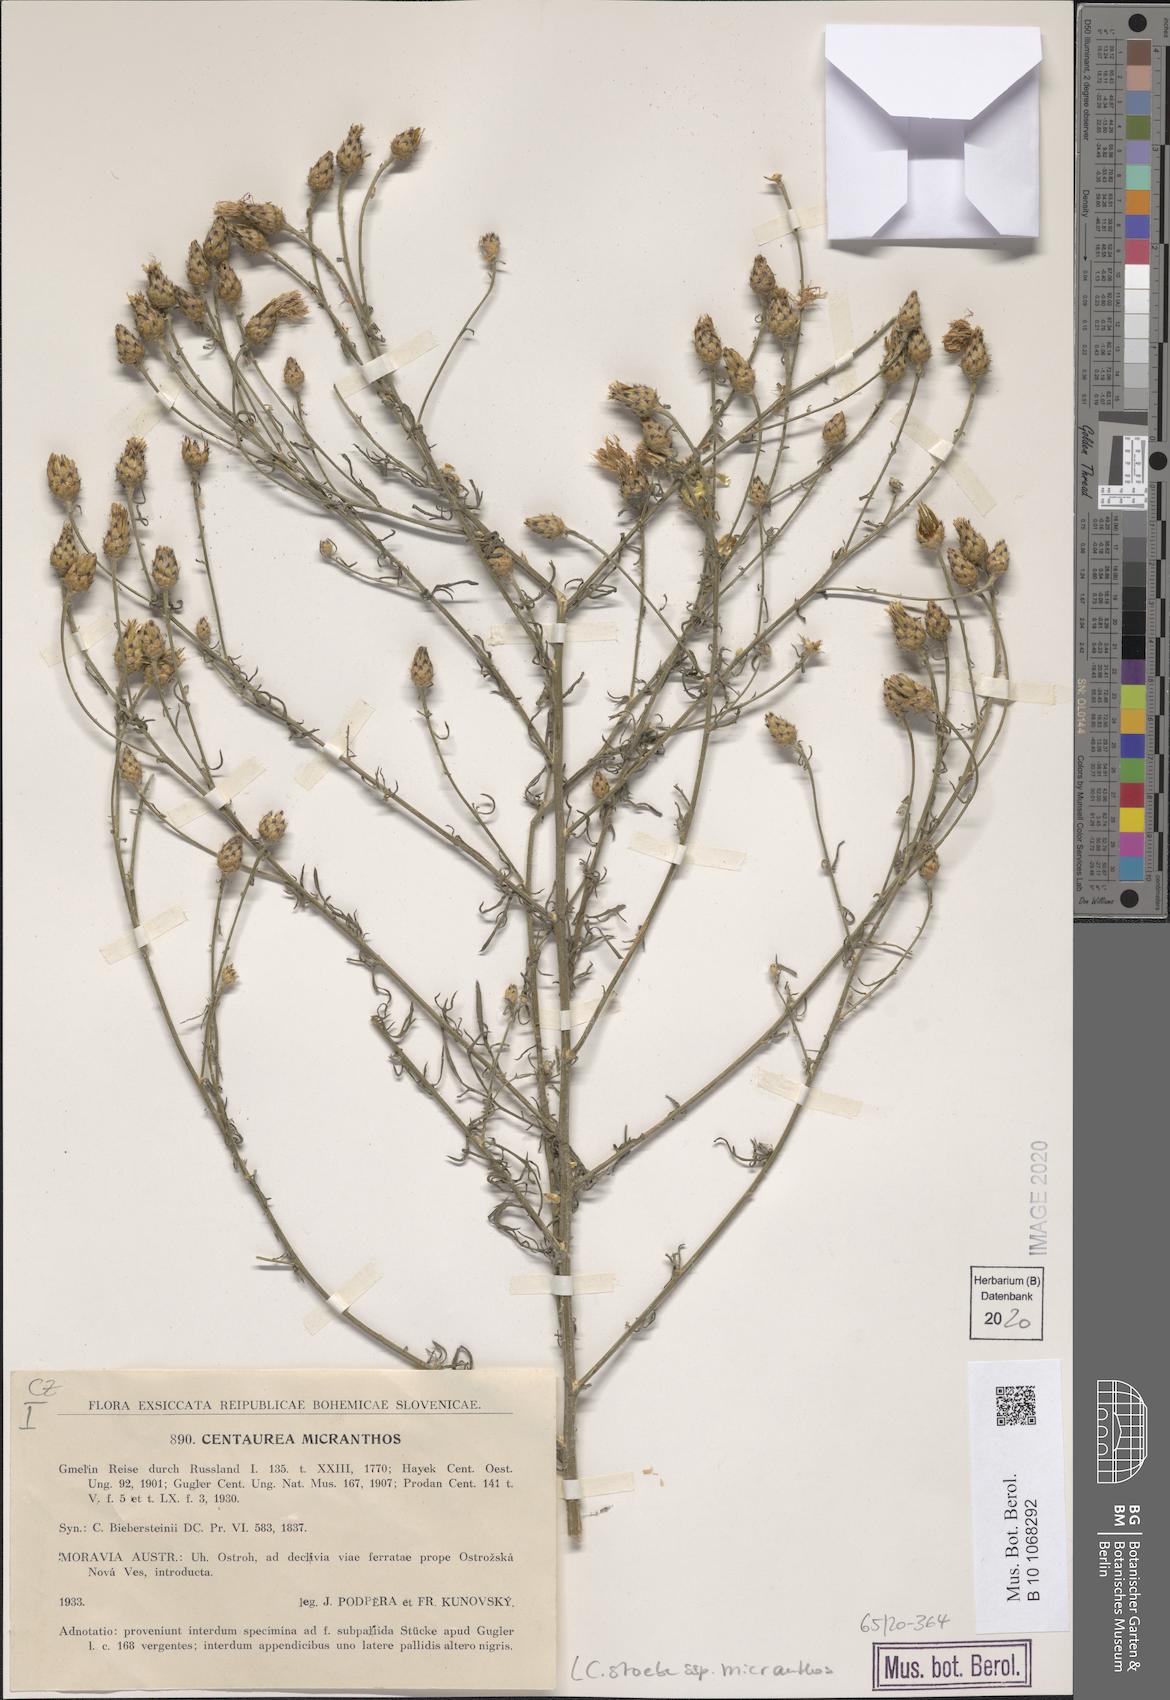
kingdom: Plantae
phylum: Tracheophyta
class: Magnoliopsida
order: Asterales
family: Asteraceae
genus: Centaurea
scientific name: Centaurea australis
